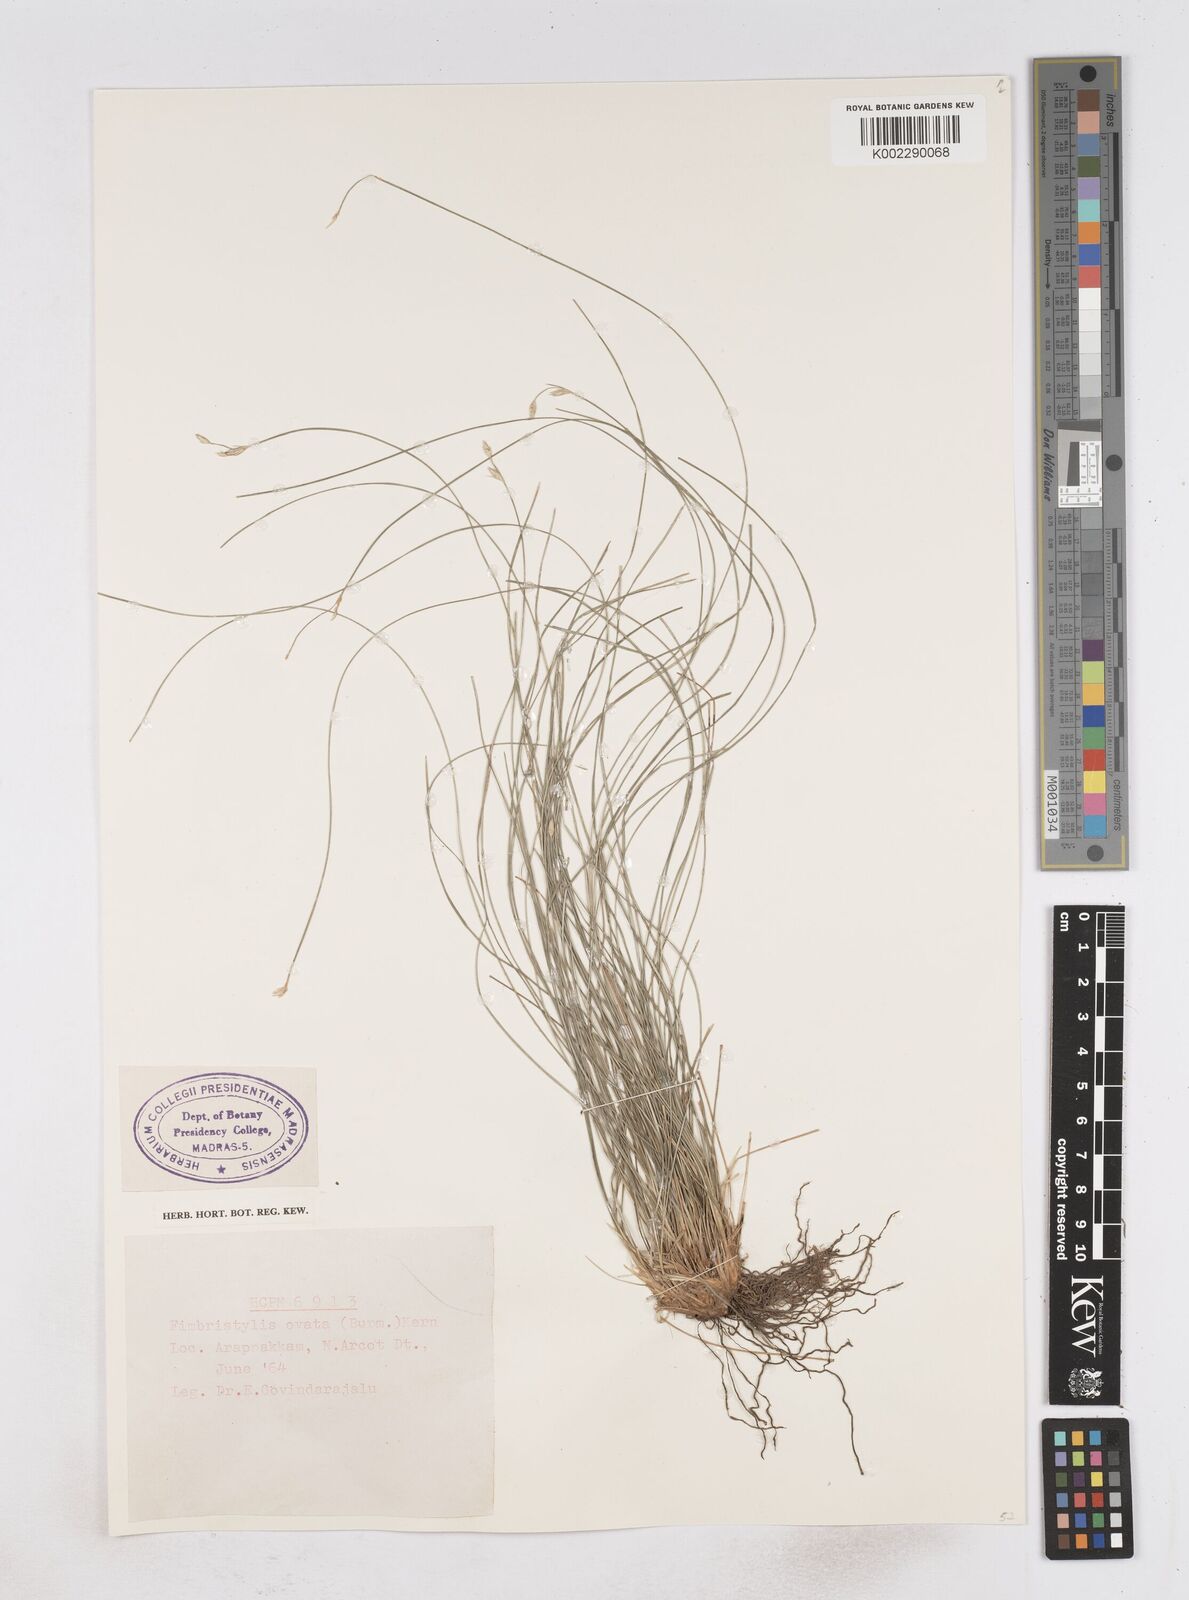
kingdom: Plantae
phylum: Tracheophyta
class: Liliopsida
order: Poales
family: Cyperaceae
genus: Abildgaardia
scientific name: Abildgaardia ovata
